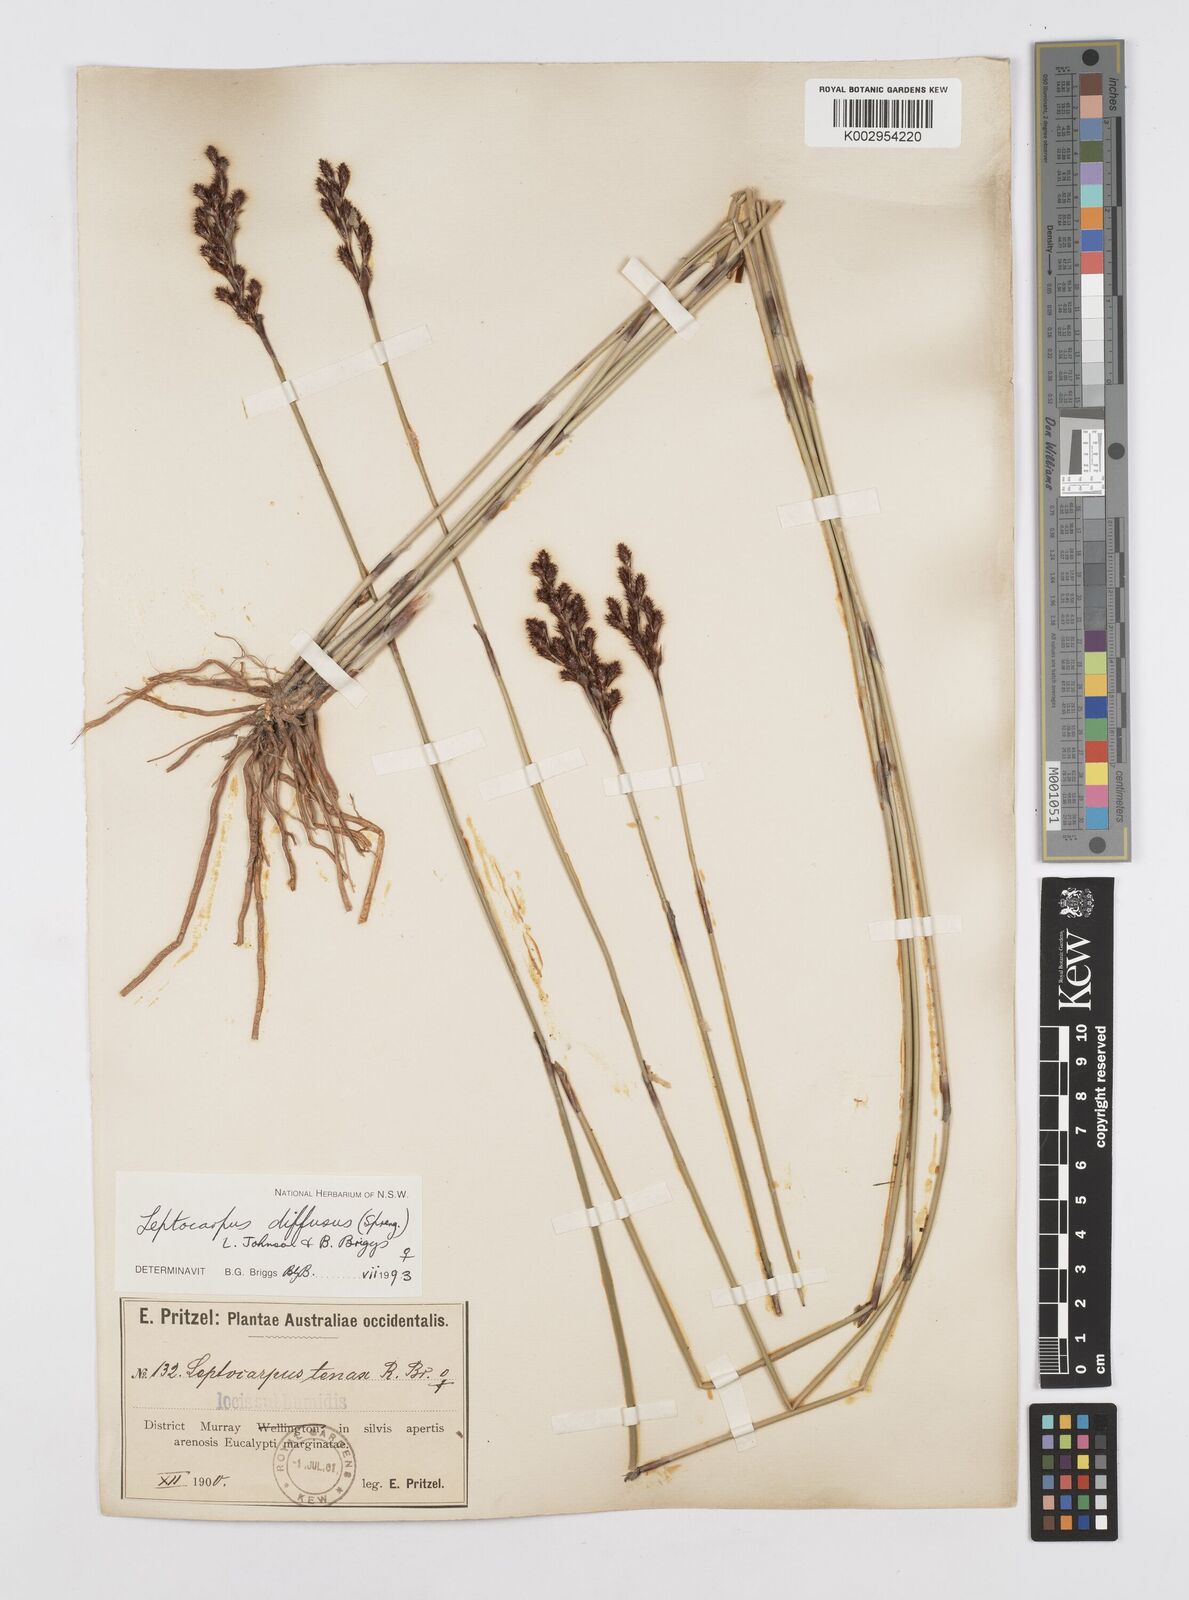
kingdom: Plantae
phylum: Tracheophyta
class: Liliopsida
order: Poales
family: Restionaceae
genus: Leptocarpus
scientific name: Leptocarpus laxus
